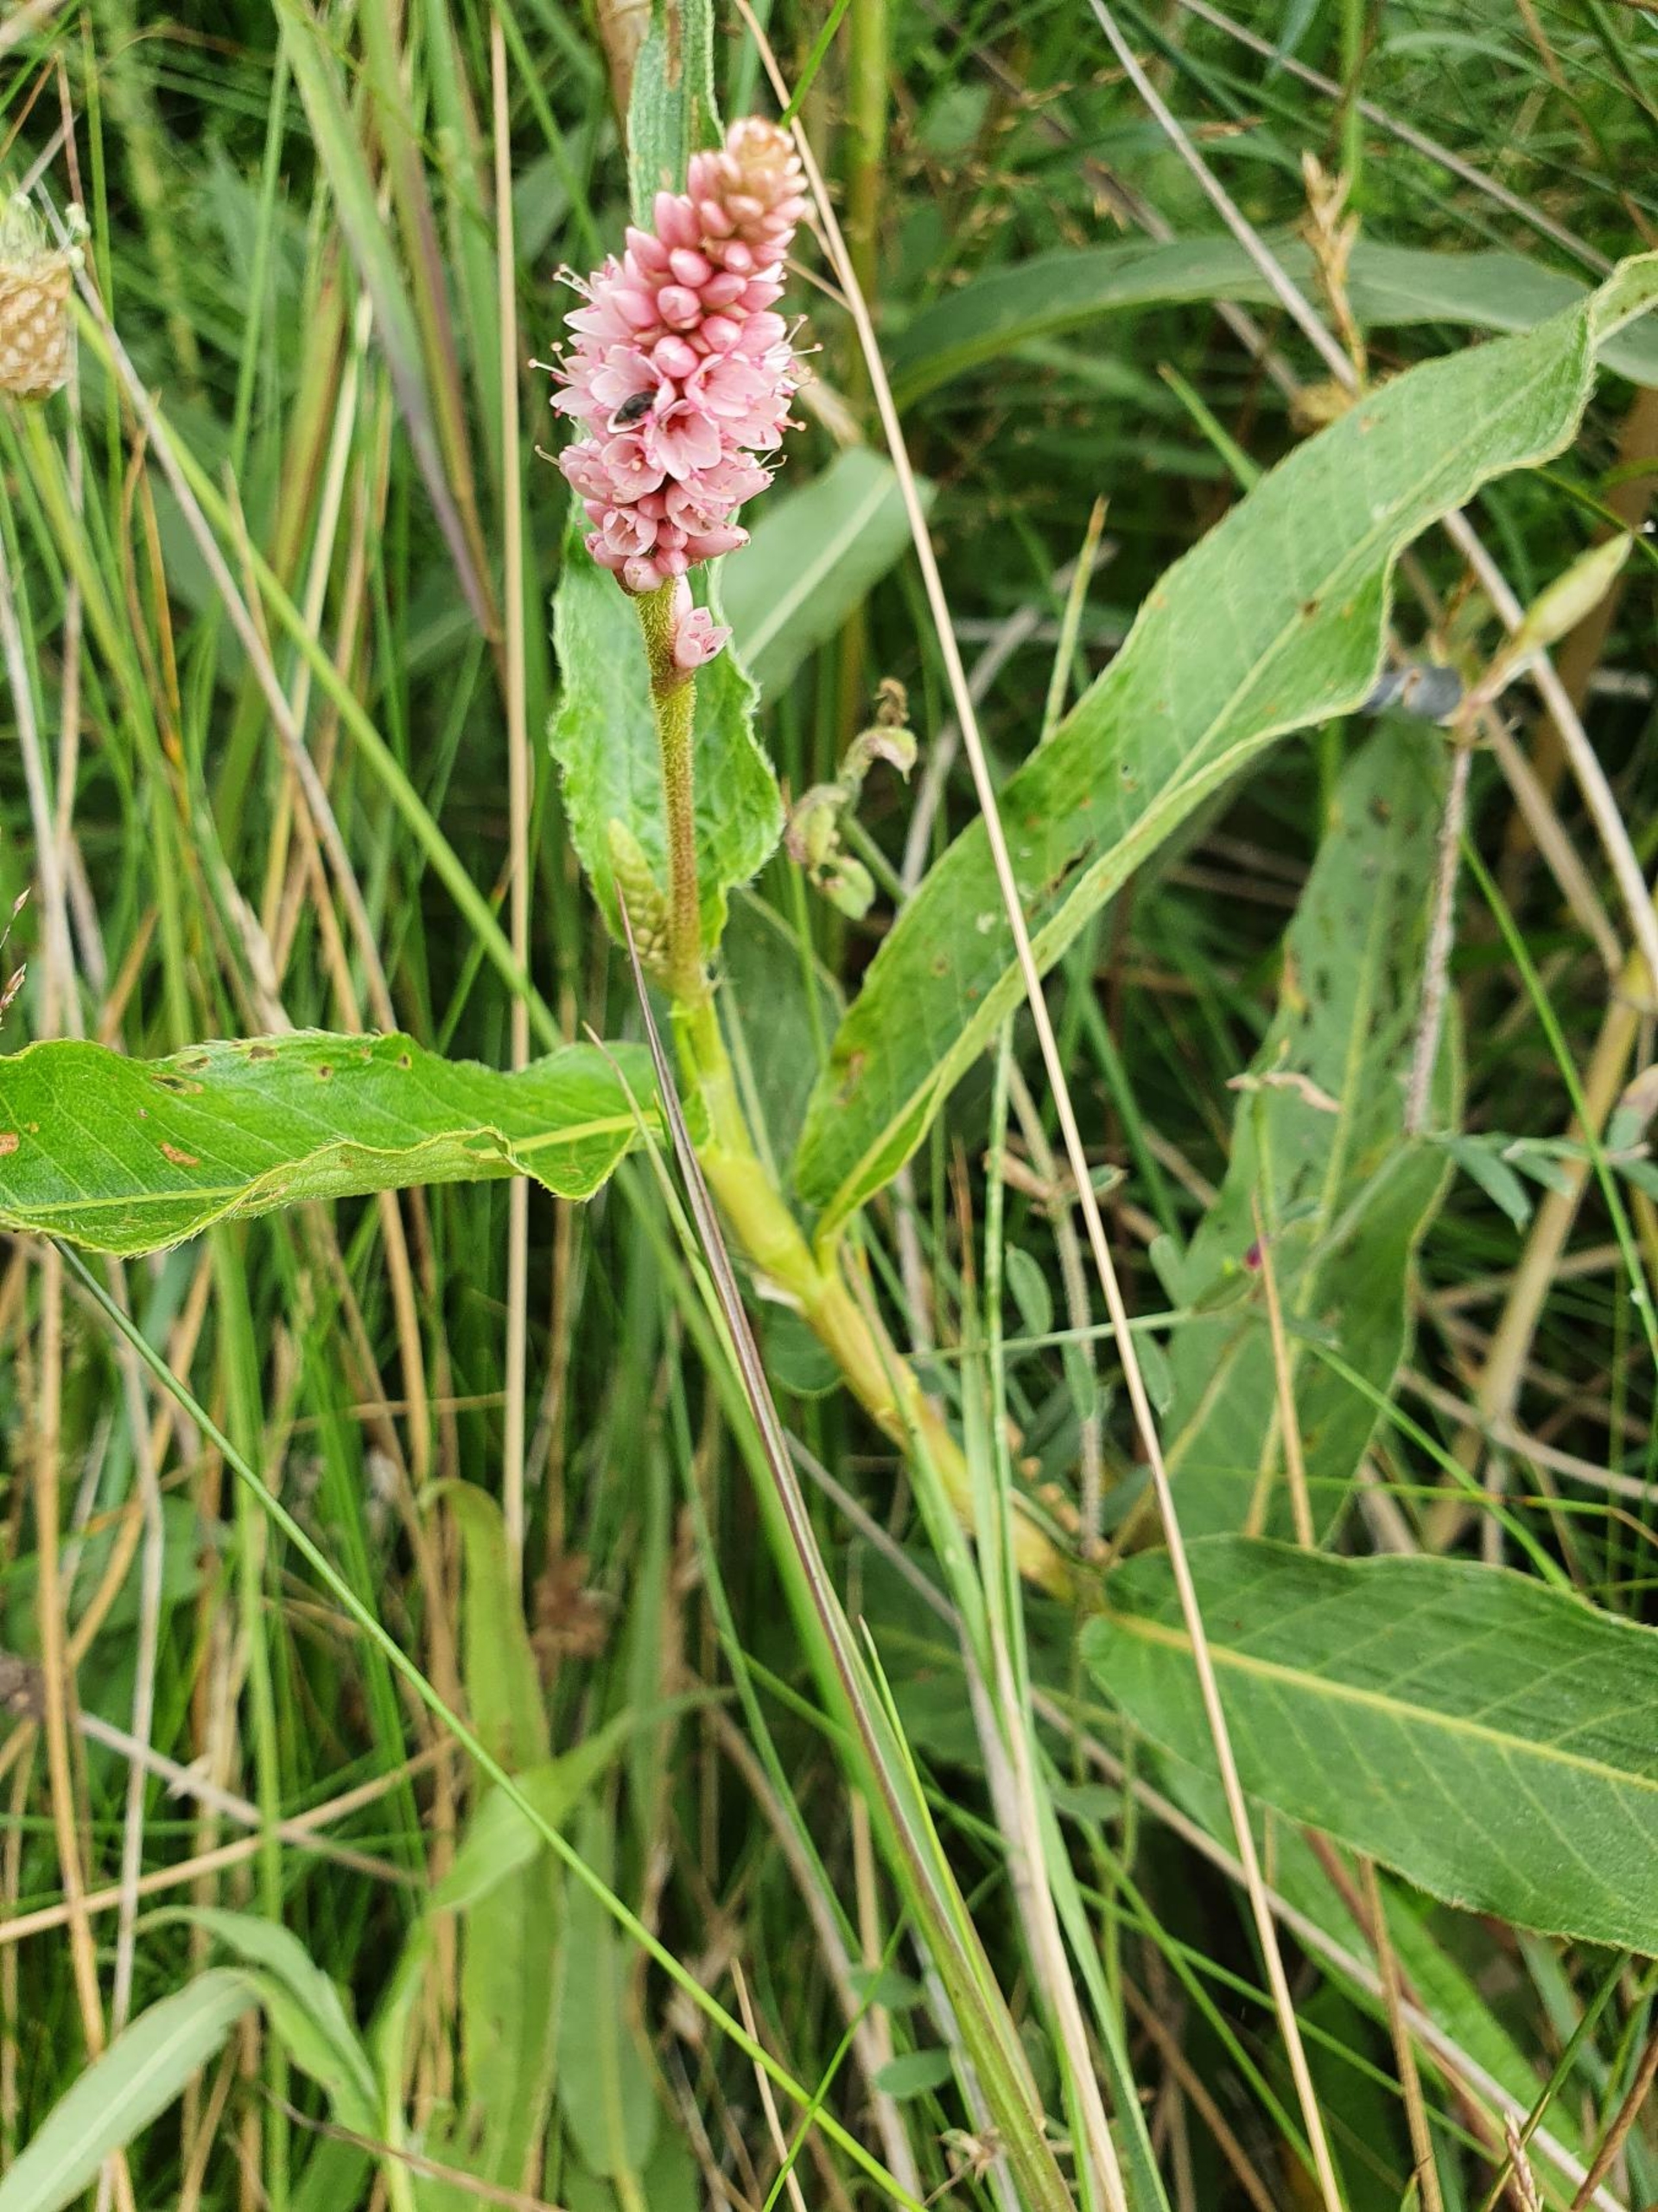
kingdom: Plantae
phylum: Tracheophyta
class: Magnoliopsida
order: Caryophyllales
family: Polygonaceae
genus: Persicaria
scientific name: Persicaria amphibia
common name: Vand-pileurt
